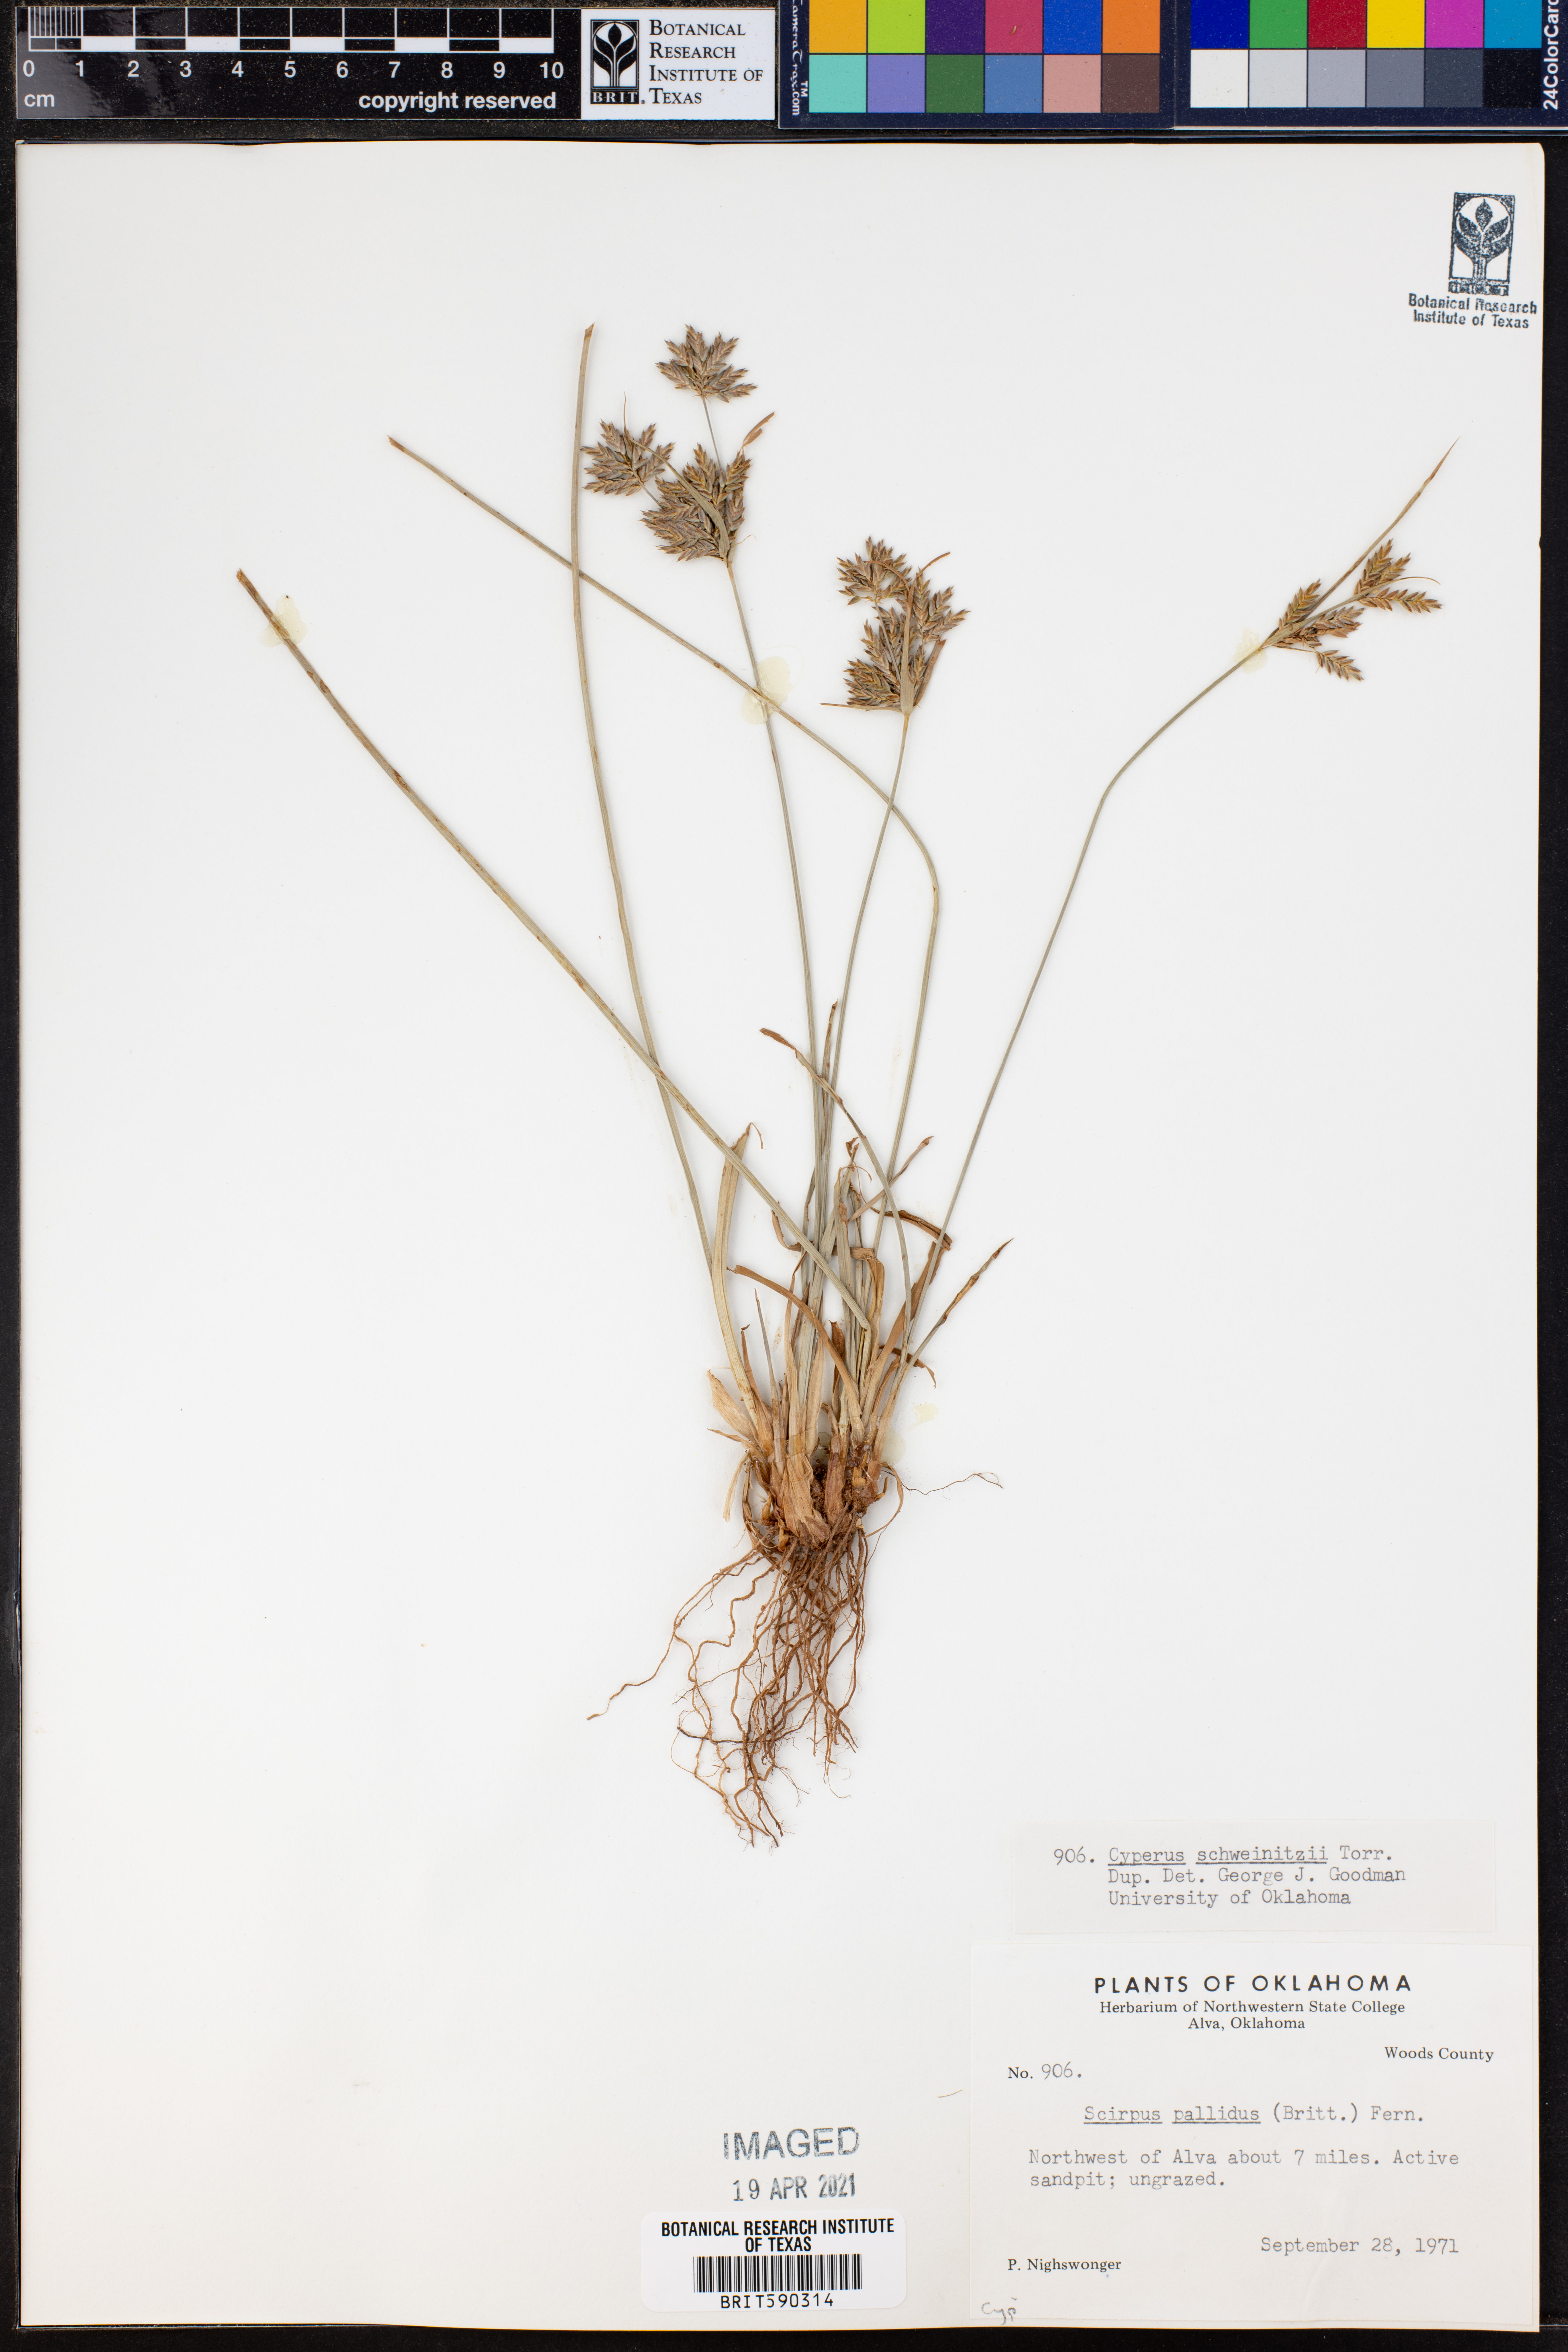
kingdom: Plantae
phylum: Tracheophyta
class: Liliopsida
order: Poales
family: Cyperaceae
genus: Cyperus
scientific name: Cyperus schweinitzii
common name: Schweinitz's cyperus
